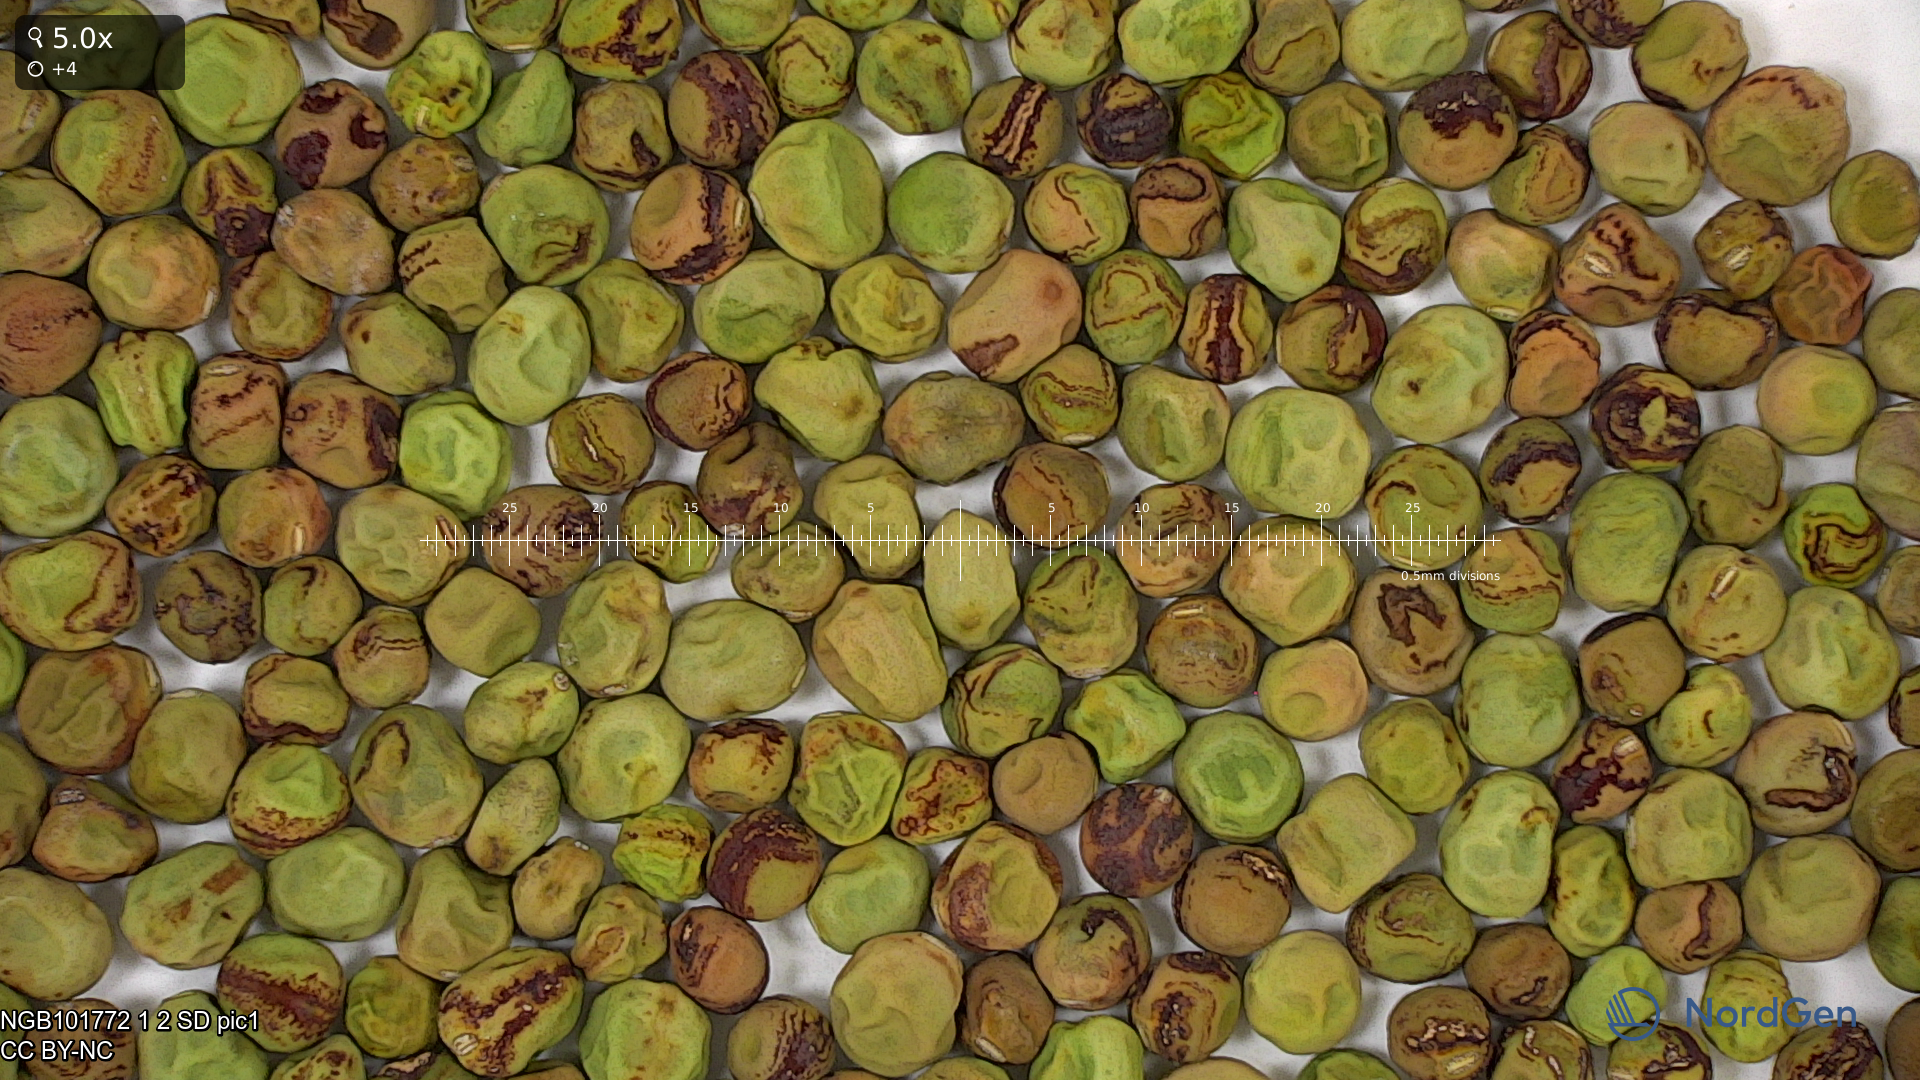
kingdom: Plantae
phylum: Tracheophyta
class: Magnoliopsida
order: Fabales
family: Fabaceae
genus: Lathyrus
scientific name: Lathyrus oleraceus
